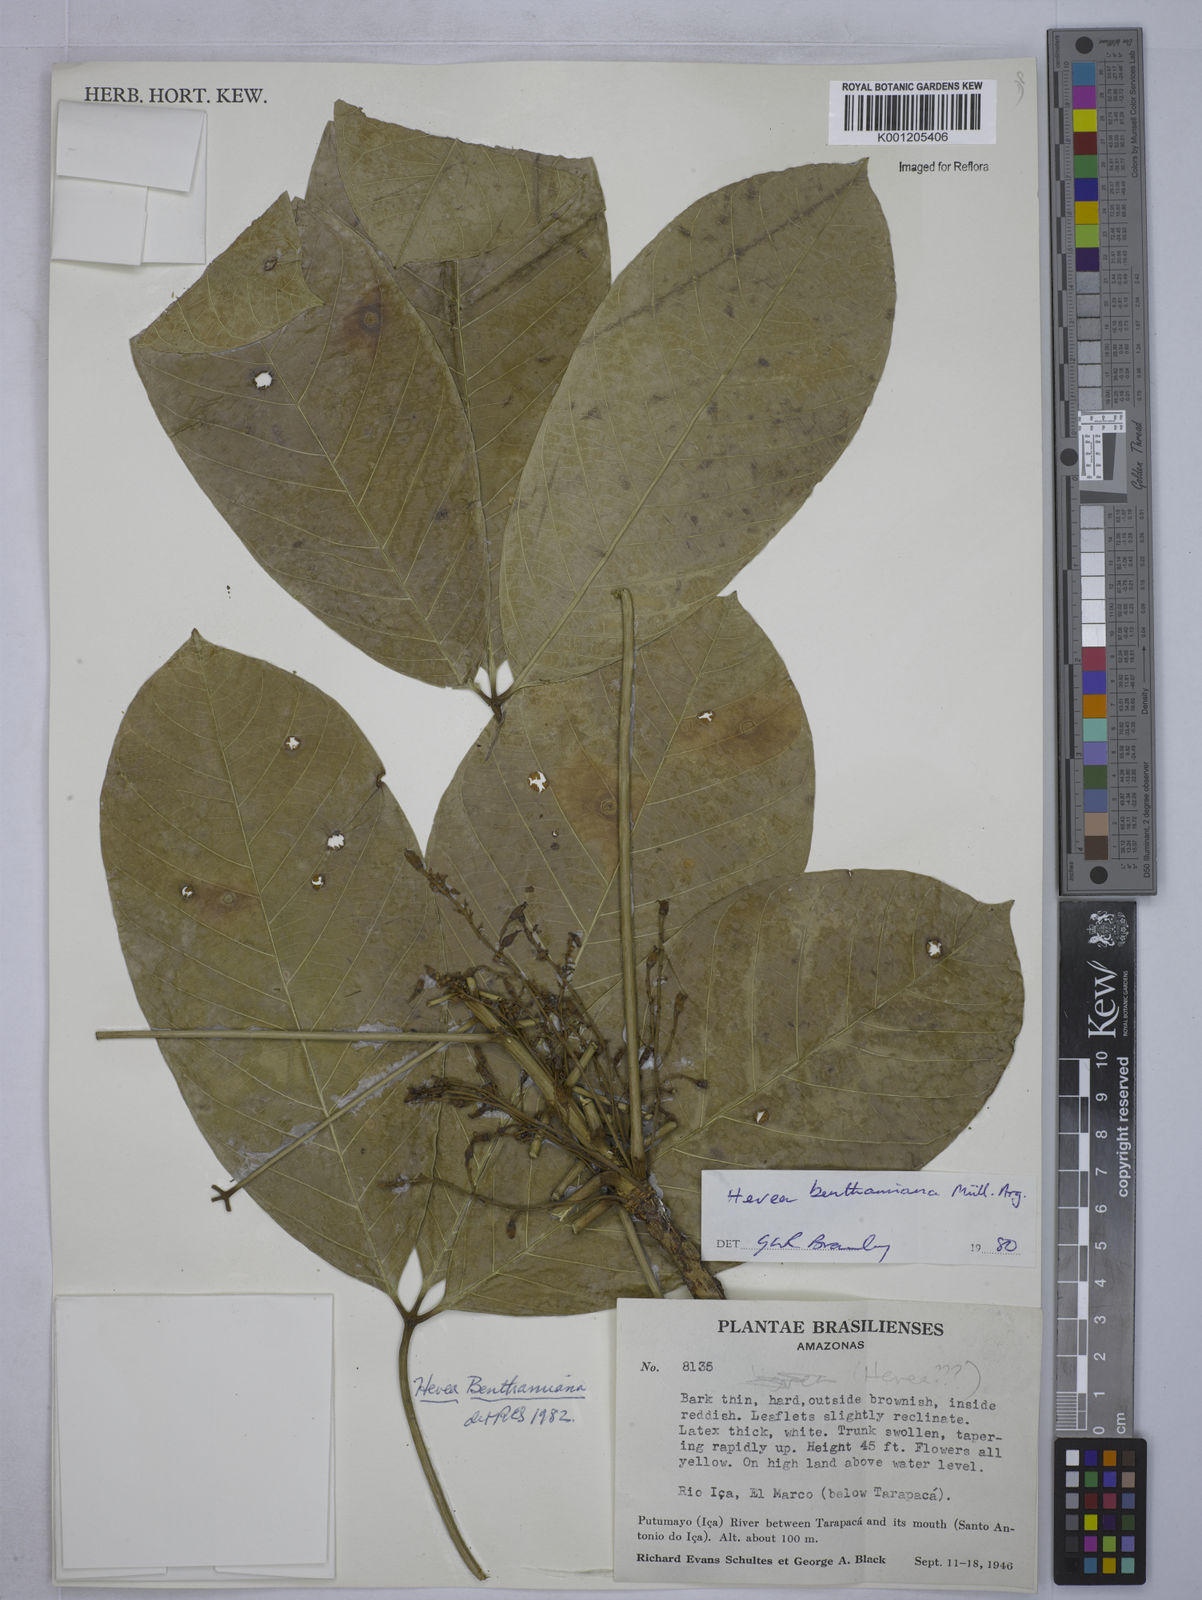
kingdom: Plantae
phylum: Tracheophyta
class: Magnoliopsida
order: Malpighiales
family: Euphorbiaceae
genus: Hevea
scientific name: Hevea
